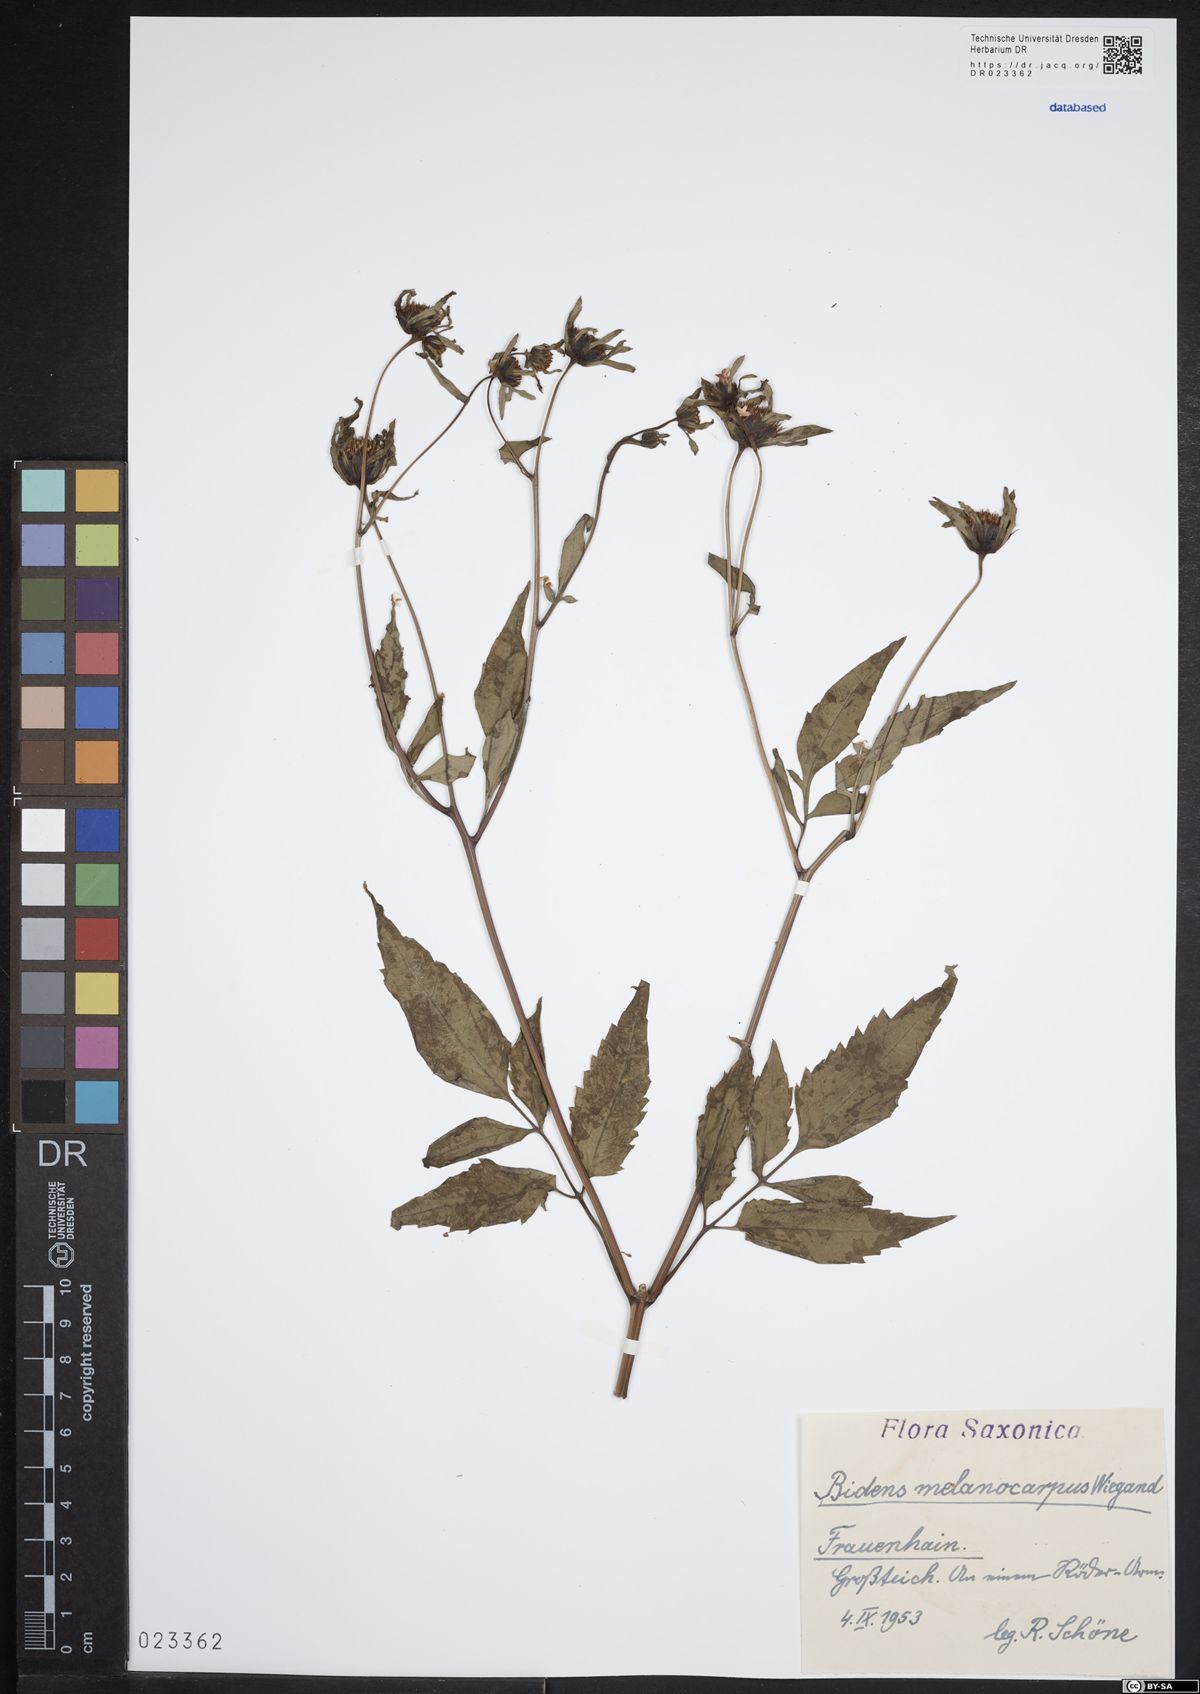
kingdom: Plantae
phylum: Tracheophyta
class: Magnoliopsida
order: Asterales
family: Asteraceae
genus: Bidens
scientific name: Bidens frondosa
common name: Beggarticks
